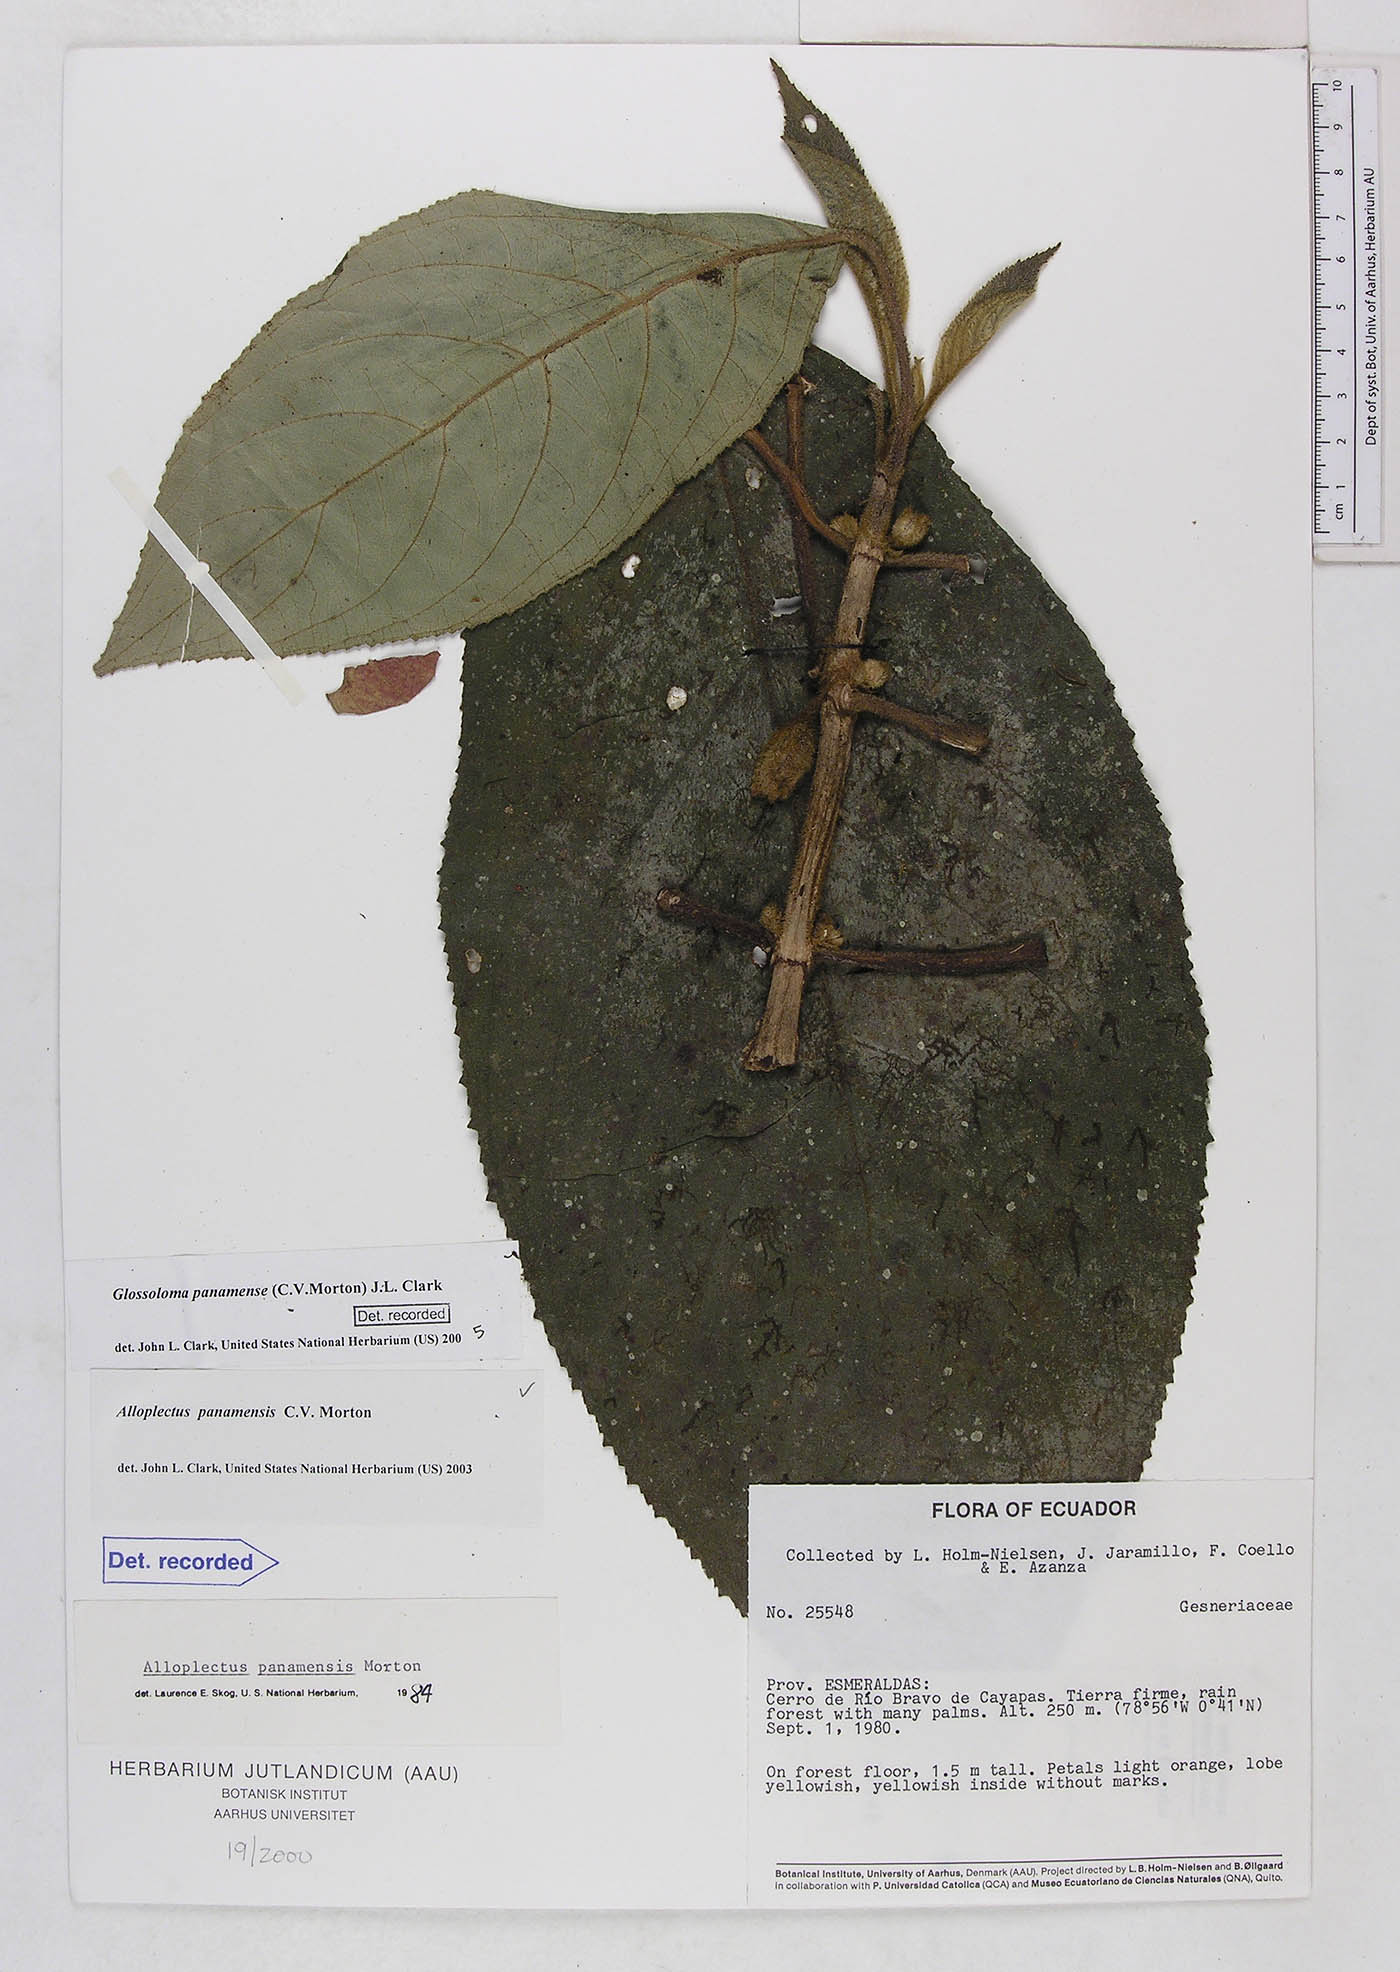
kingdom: Plantae
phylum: Tracheophyta
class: Magnoliopsida
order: Lamiales
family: Gesneriaceae
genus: Glossoloma
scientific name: Glossoloma panamense
